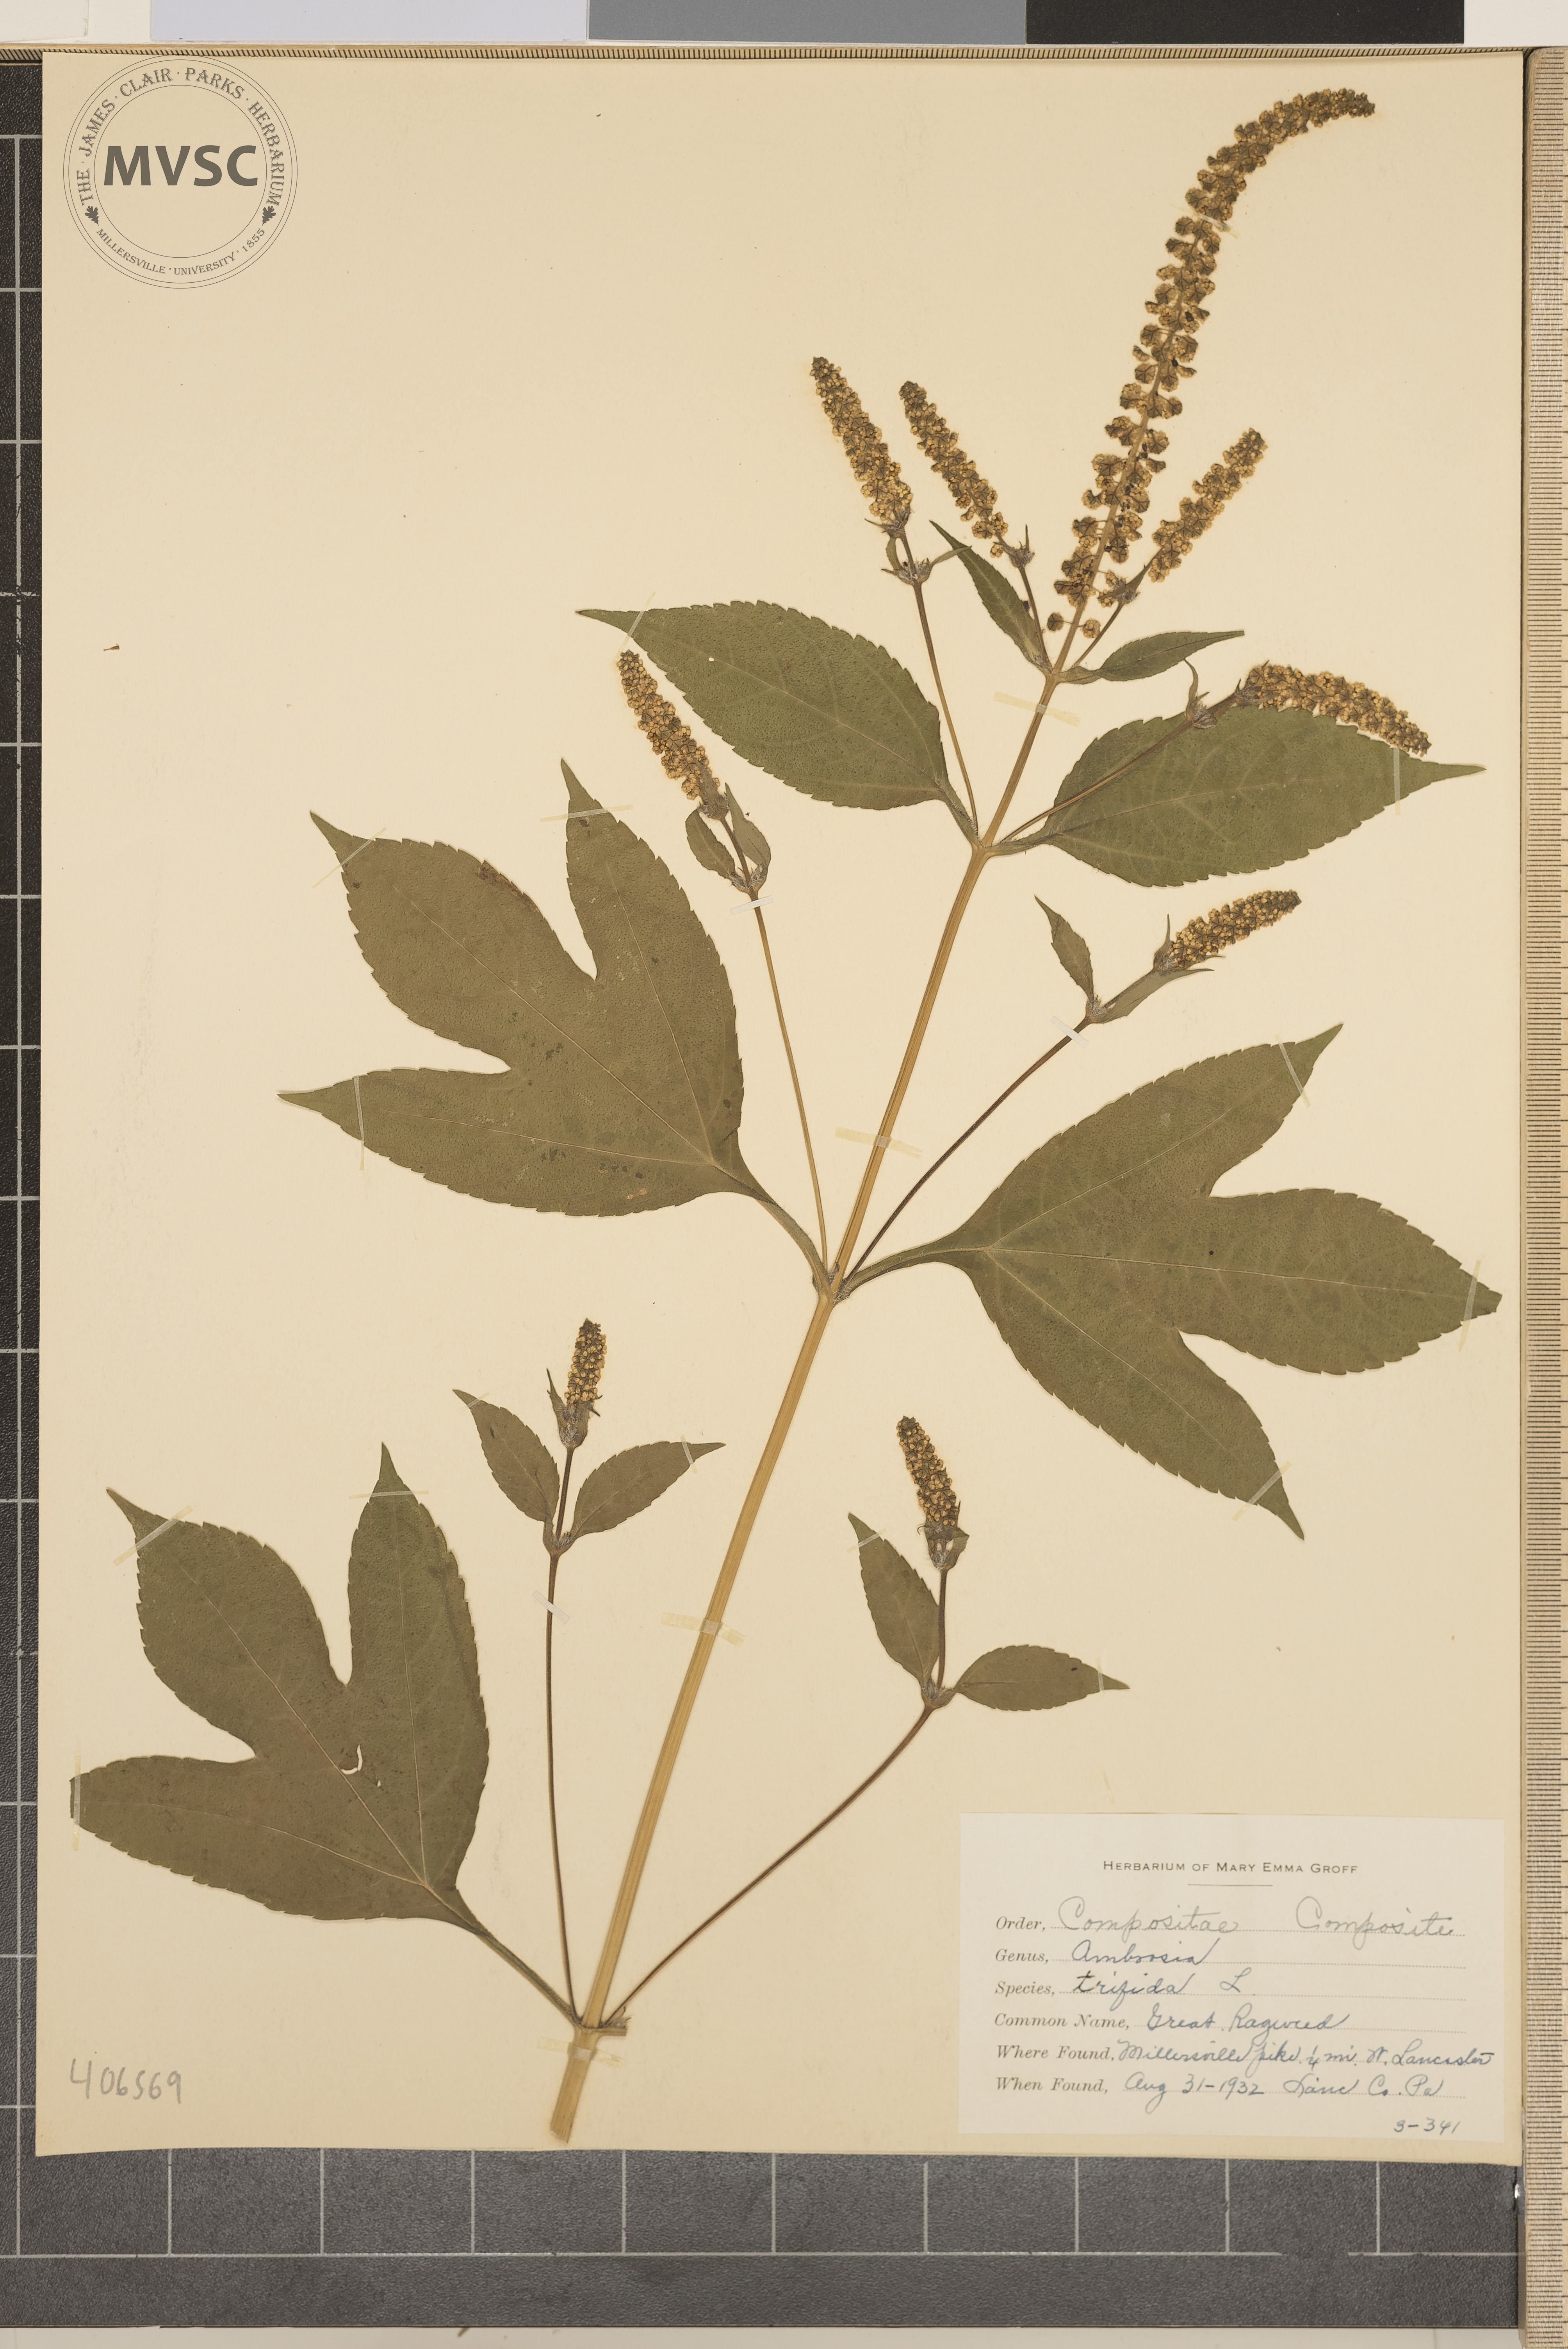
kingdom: Plantae
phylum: Tracheophyta
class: Magnoliopsida
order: Asterales
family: Asteraceae
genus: Ambrosia
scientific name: Ambrosia trifida
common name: Great Ragweed
